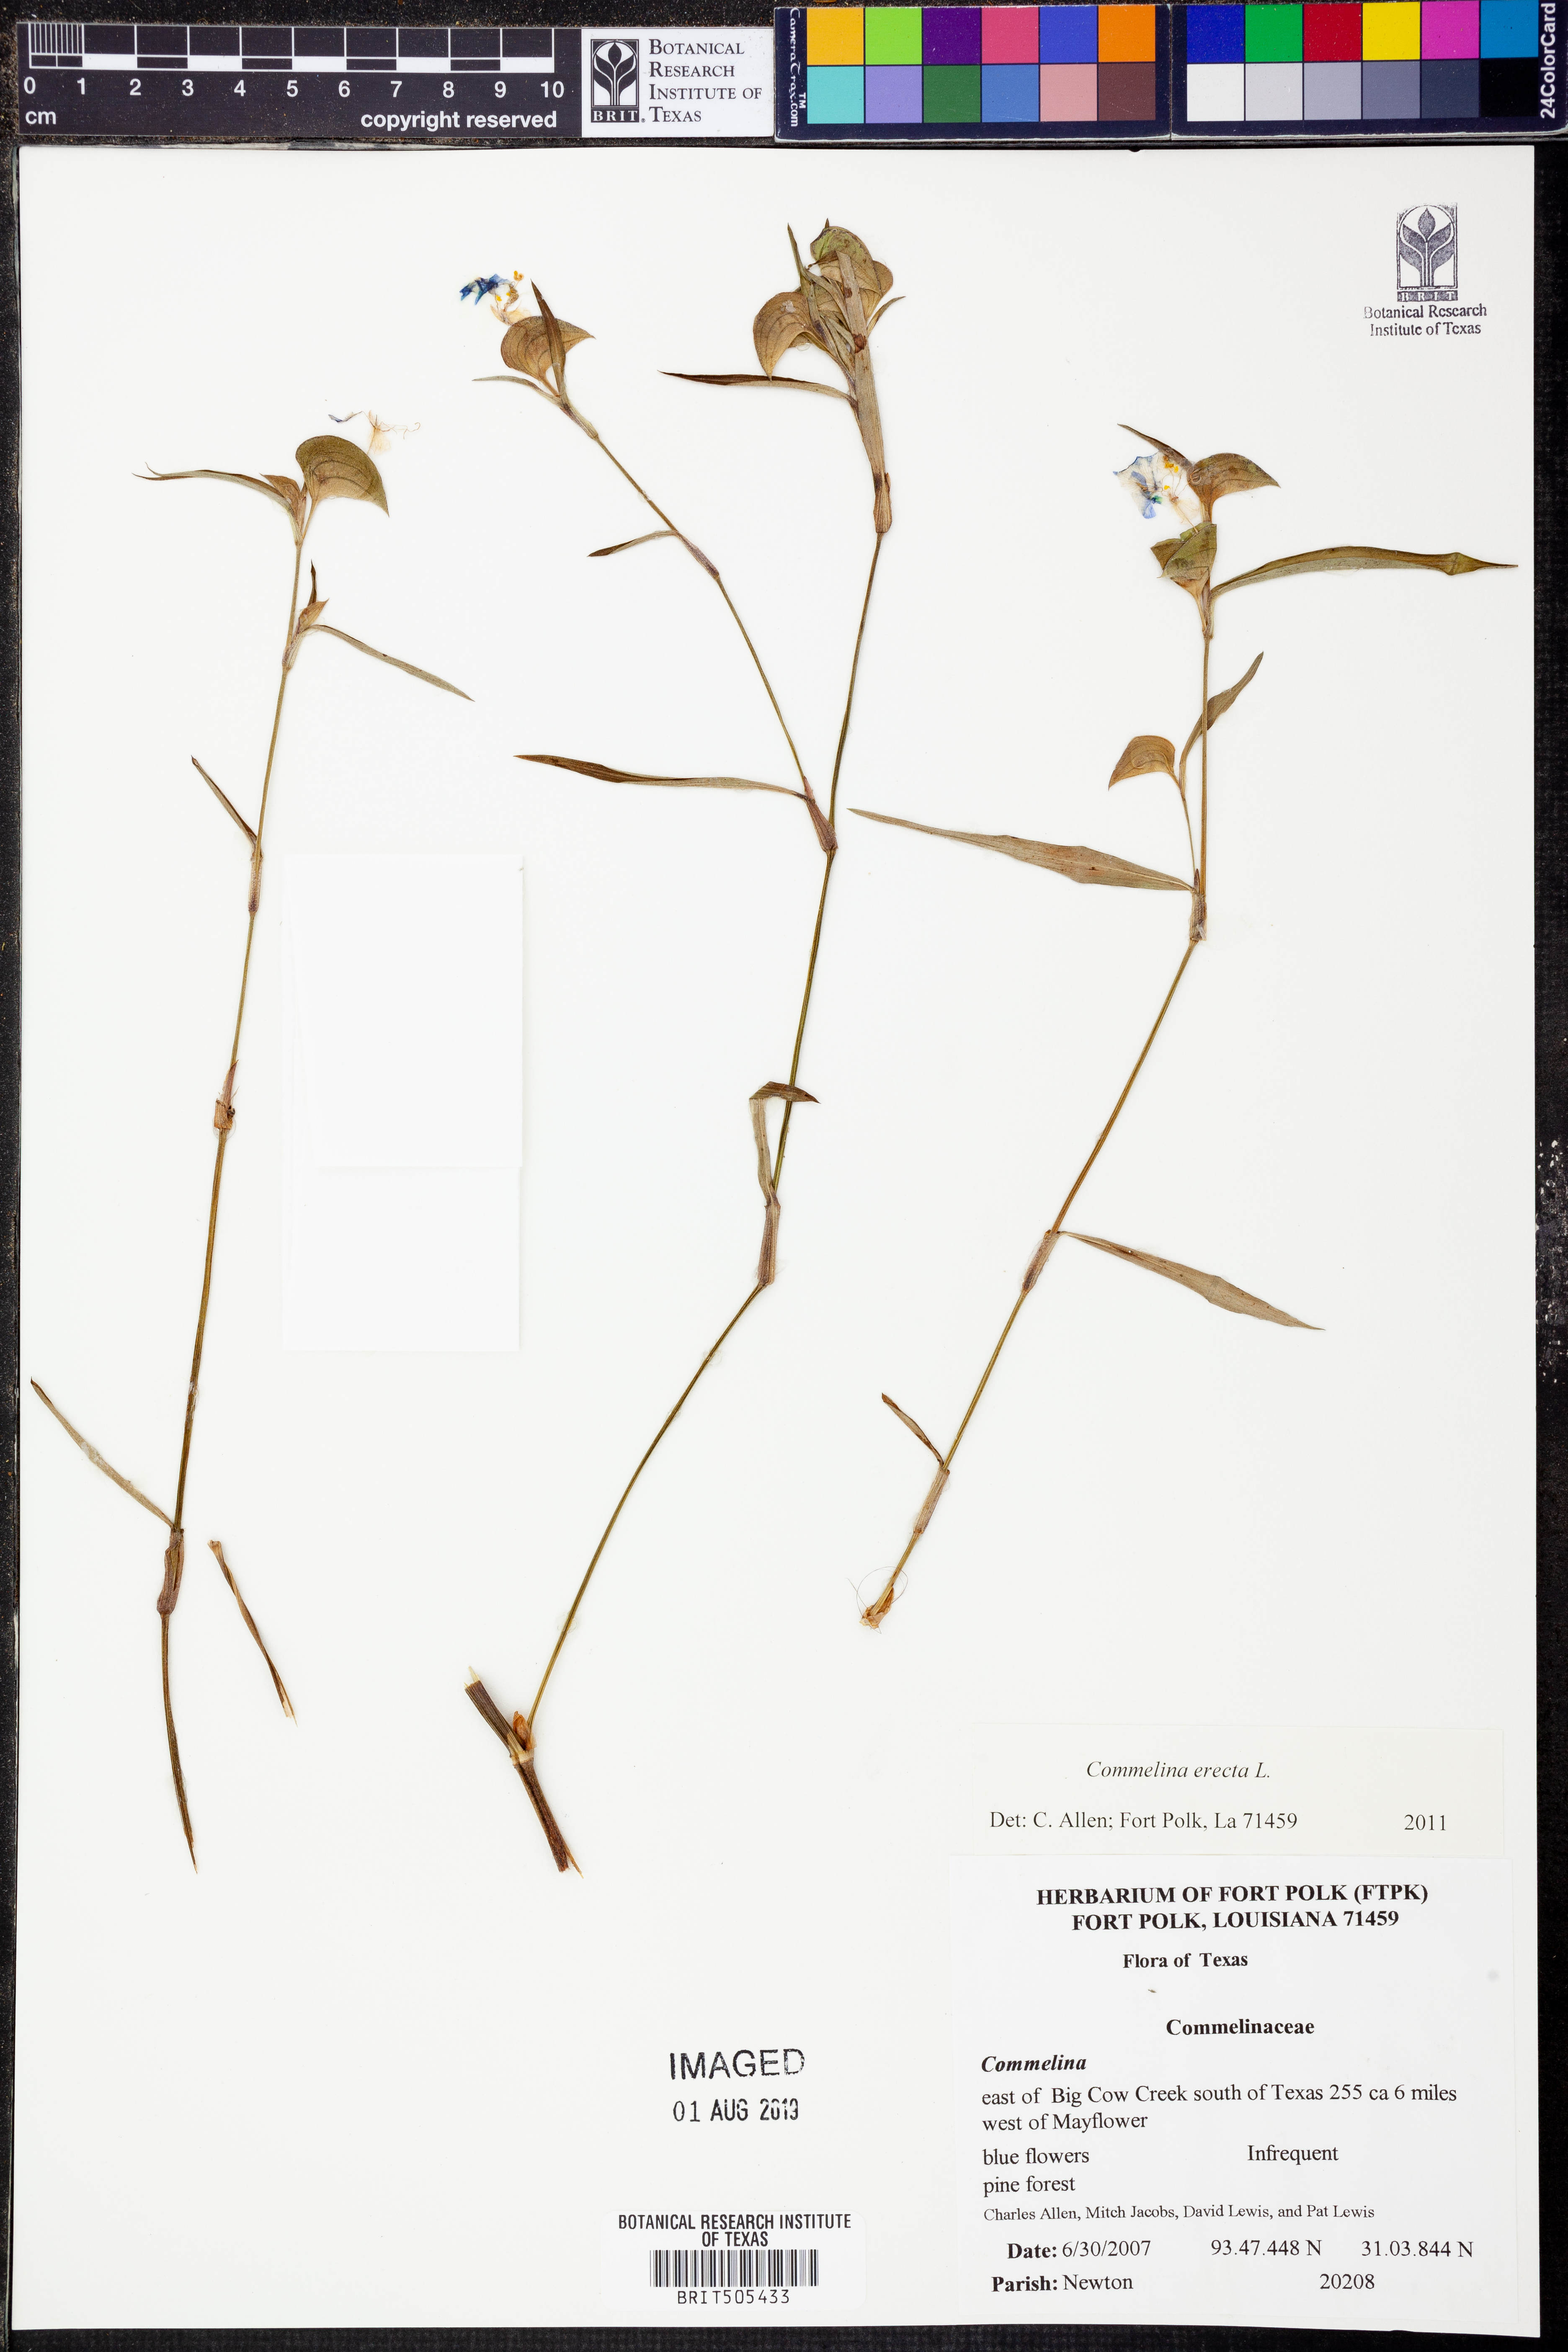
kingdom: Plantae
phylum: Tracheophyta
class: Liliopsida
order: Commelinales
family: Commelinaceae
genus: Commelina
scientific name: Commelina erecta
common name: Blousel blommetjie
